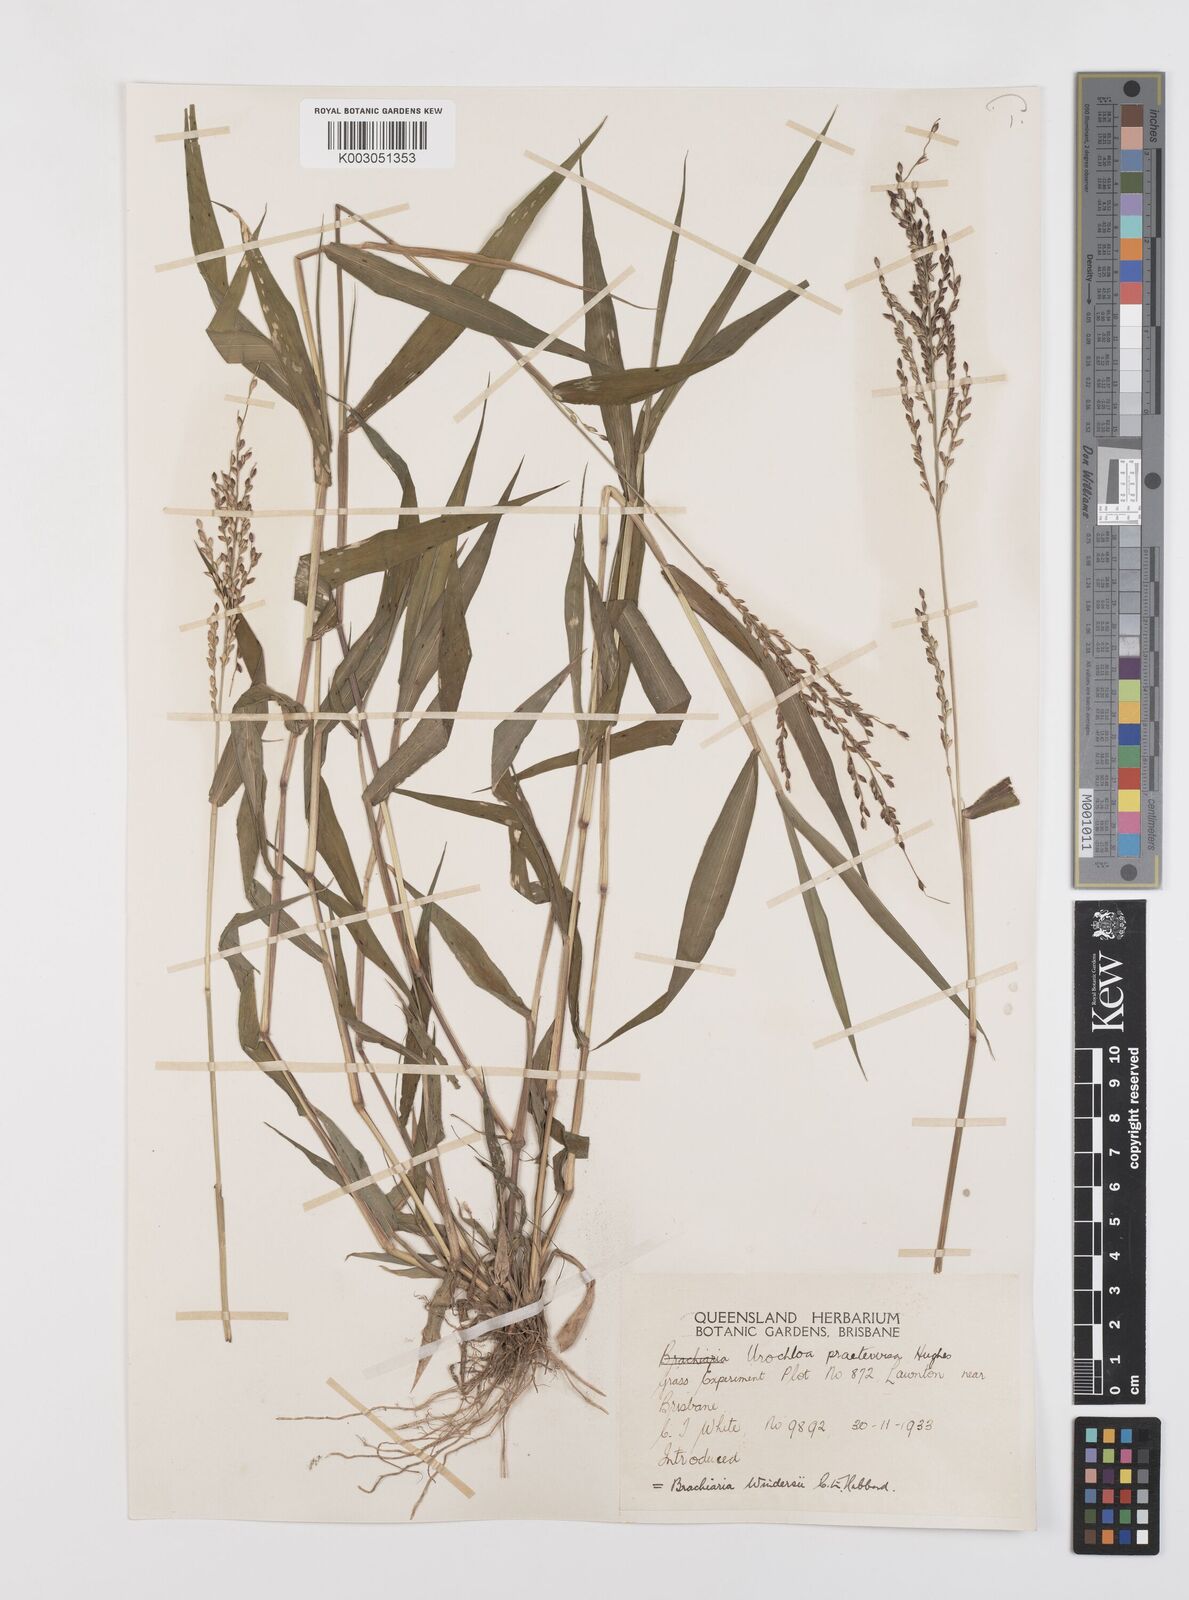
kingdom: Plantae
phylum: Tracheophyta
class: Liliopsida
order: Poales
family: Poaceae
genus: Urochloa
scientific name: Urochloa whiteana
